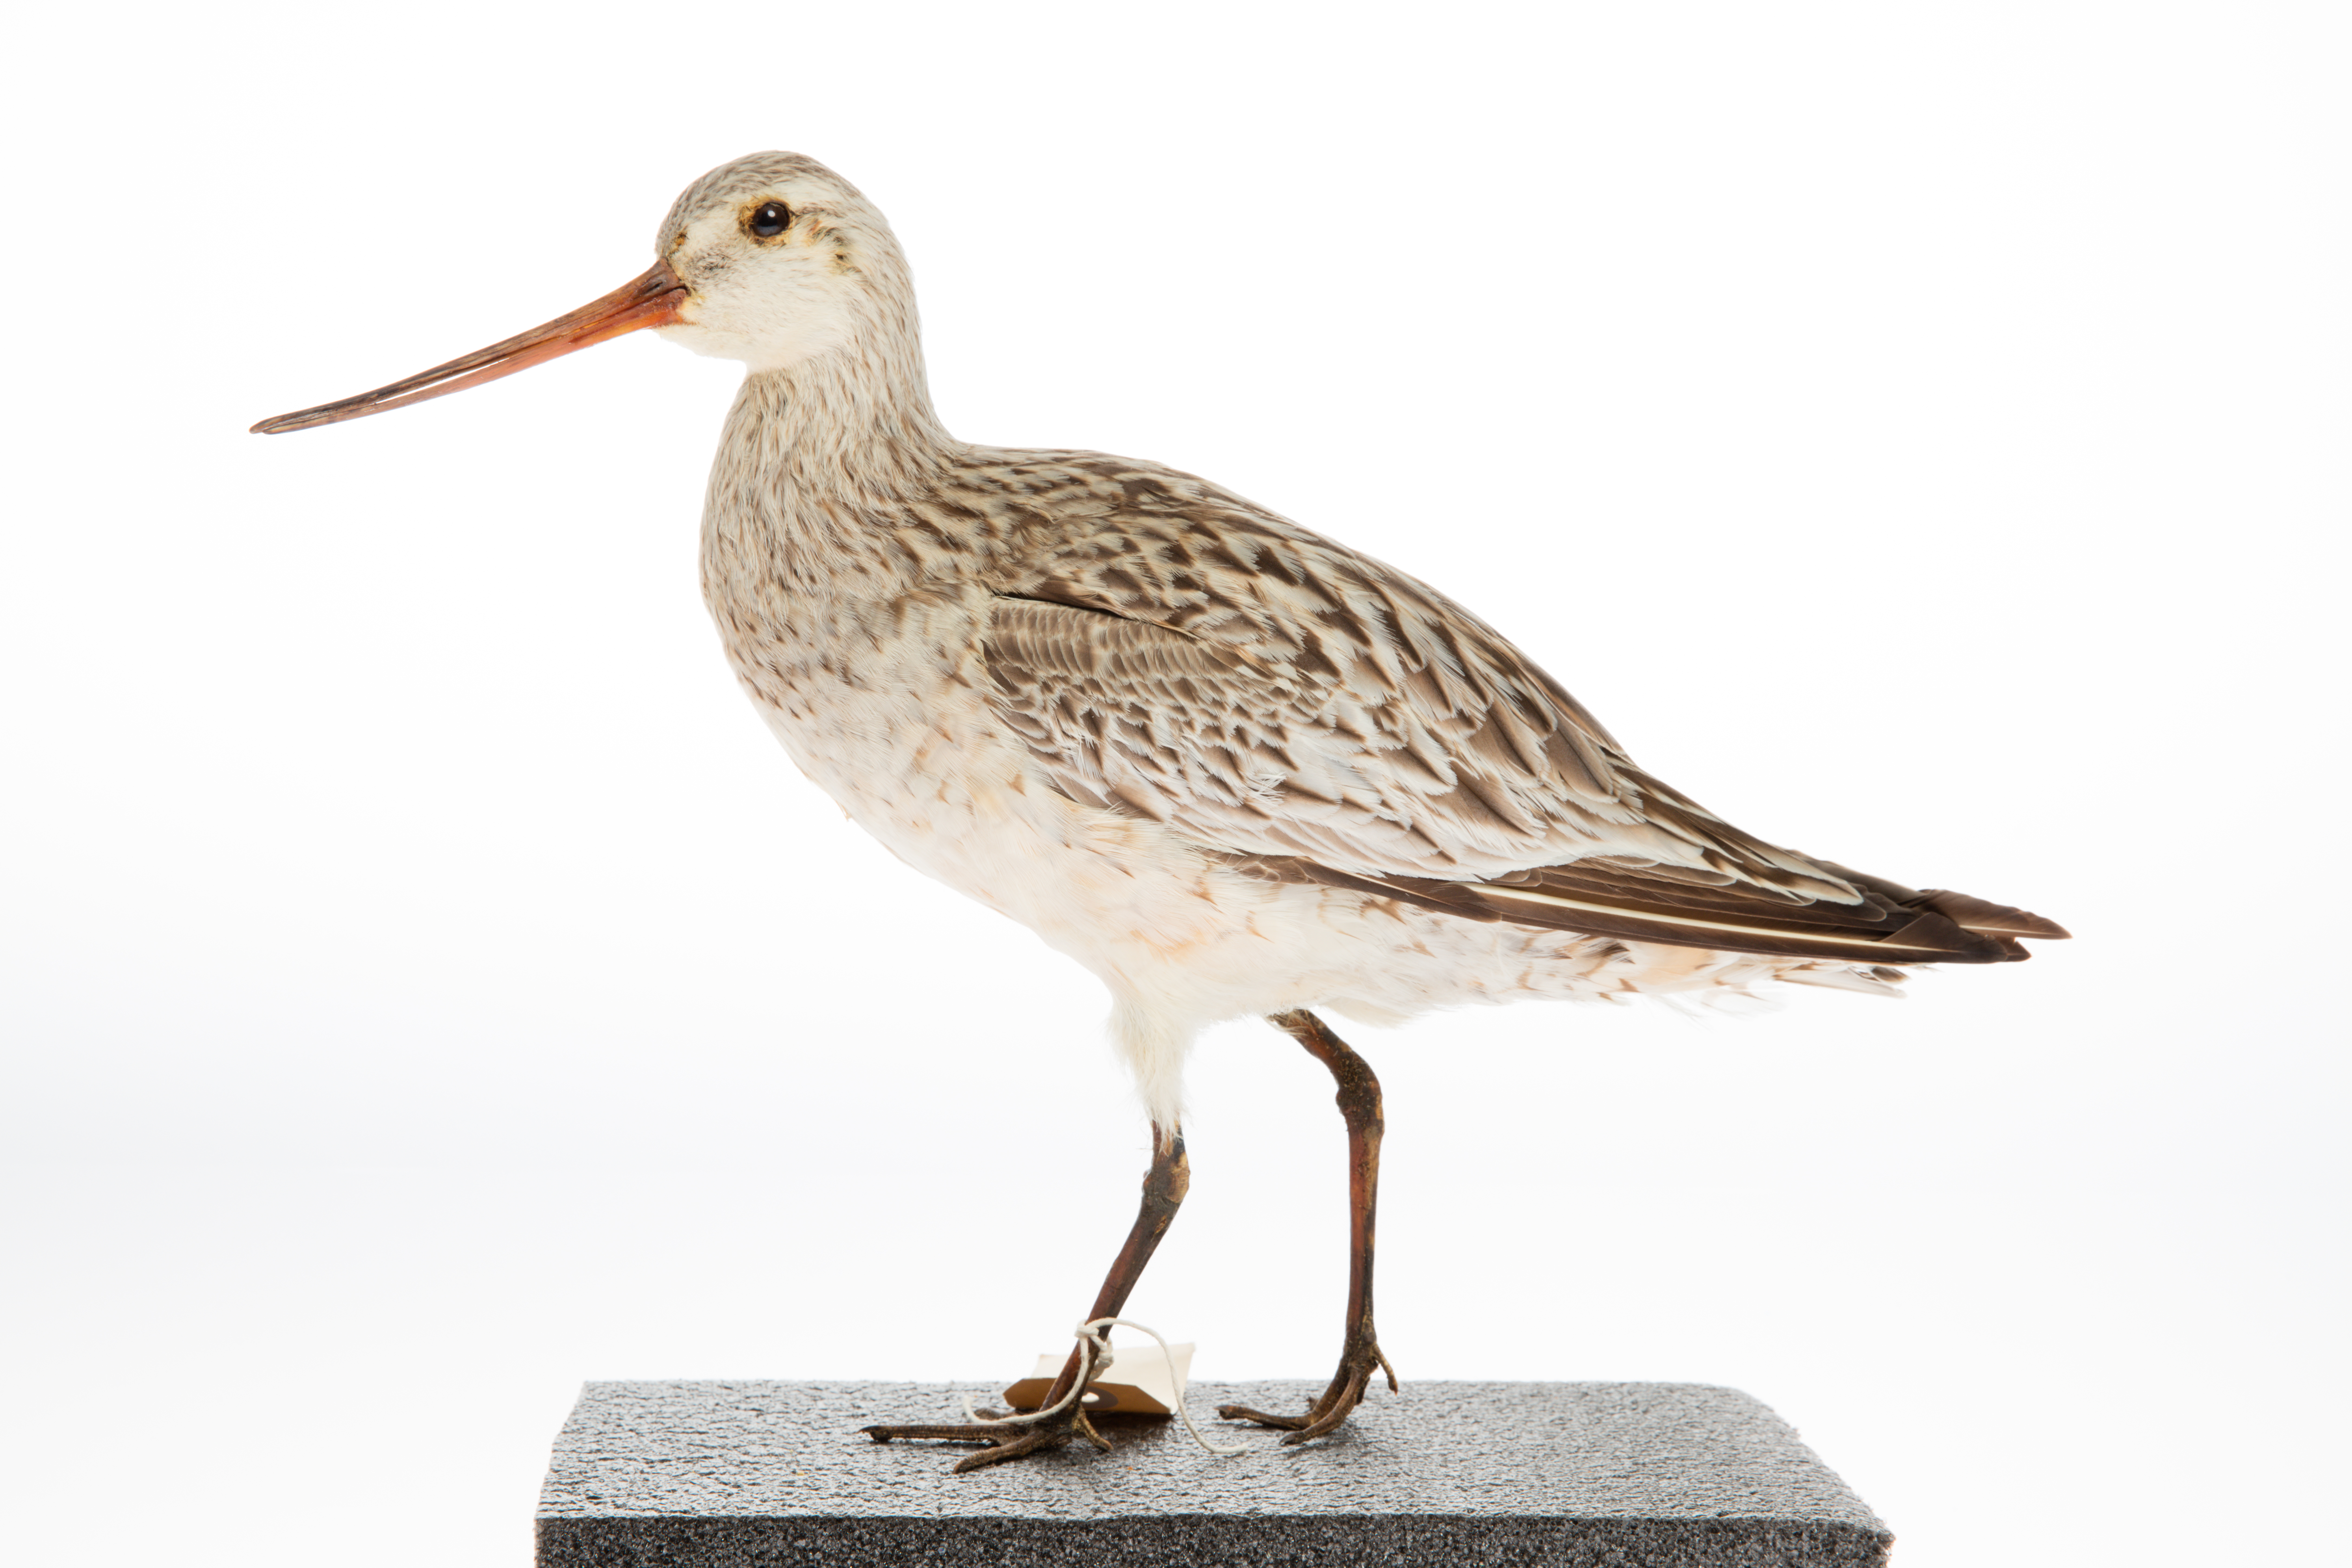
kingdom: Animalia
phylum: Chordata
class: Aves
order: Charadriiformes
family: Scolopacidae
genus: Limosa
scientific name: Limosa lapponica
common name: Bar-tailed godwit
